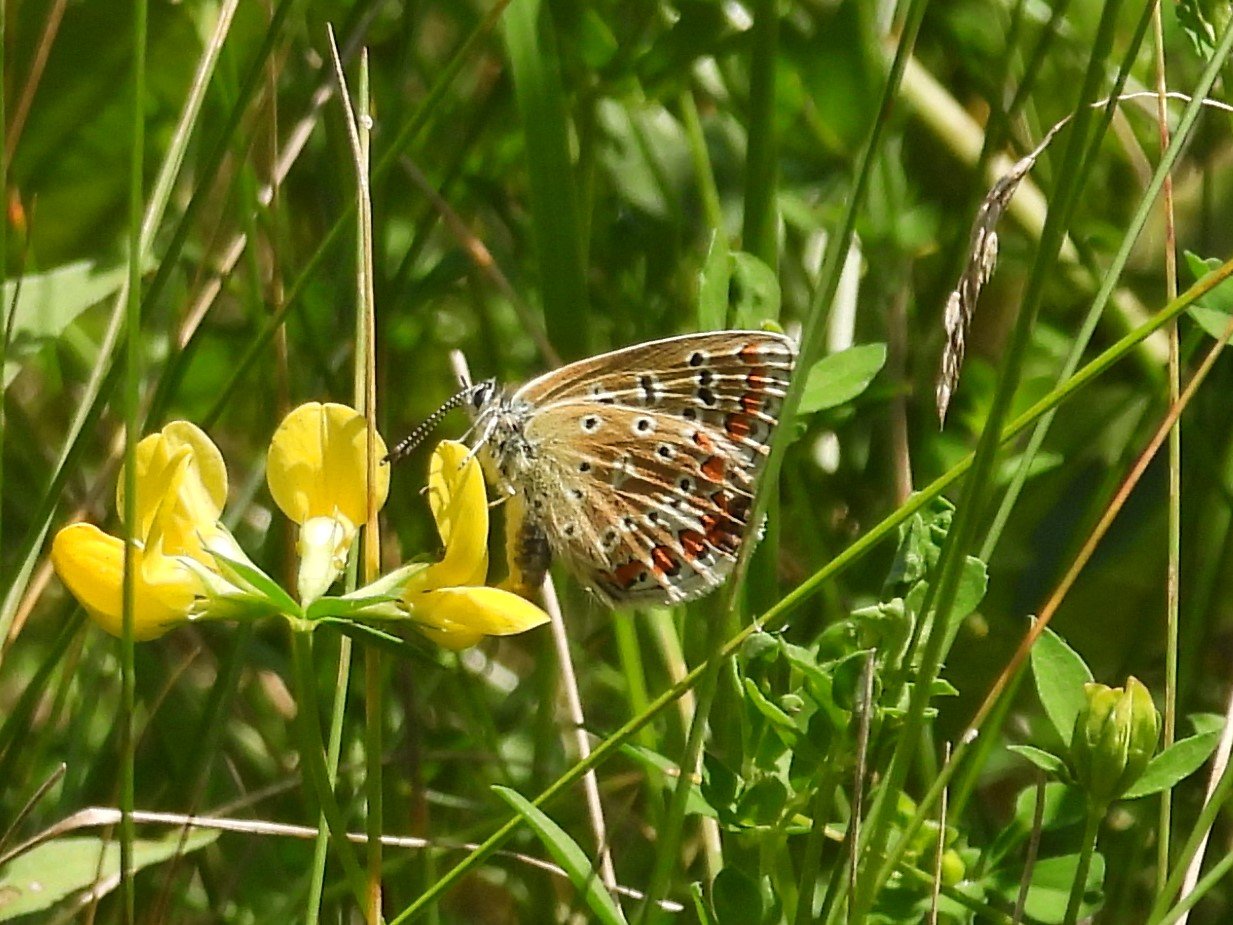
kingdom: Animalia
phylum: Arthropoda
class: Insecta
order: Lepidoptera
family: Lycaenidae
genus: Polyommatus
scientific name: Polyommatus icarus
